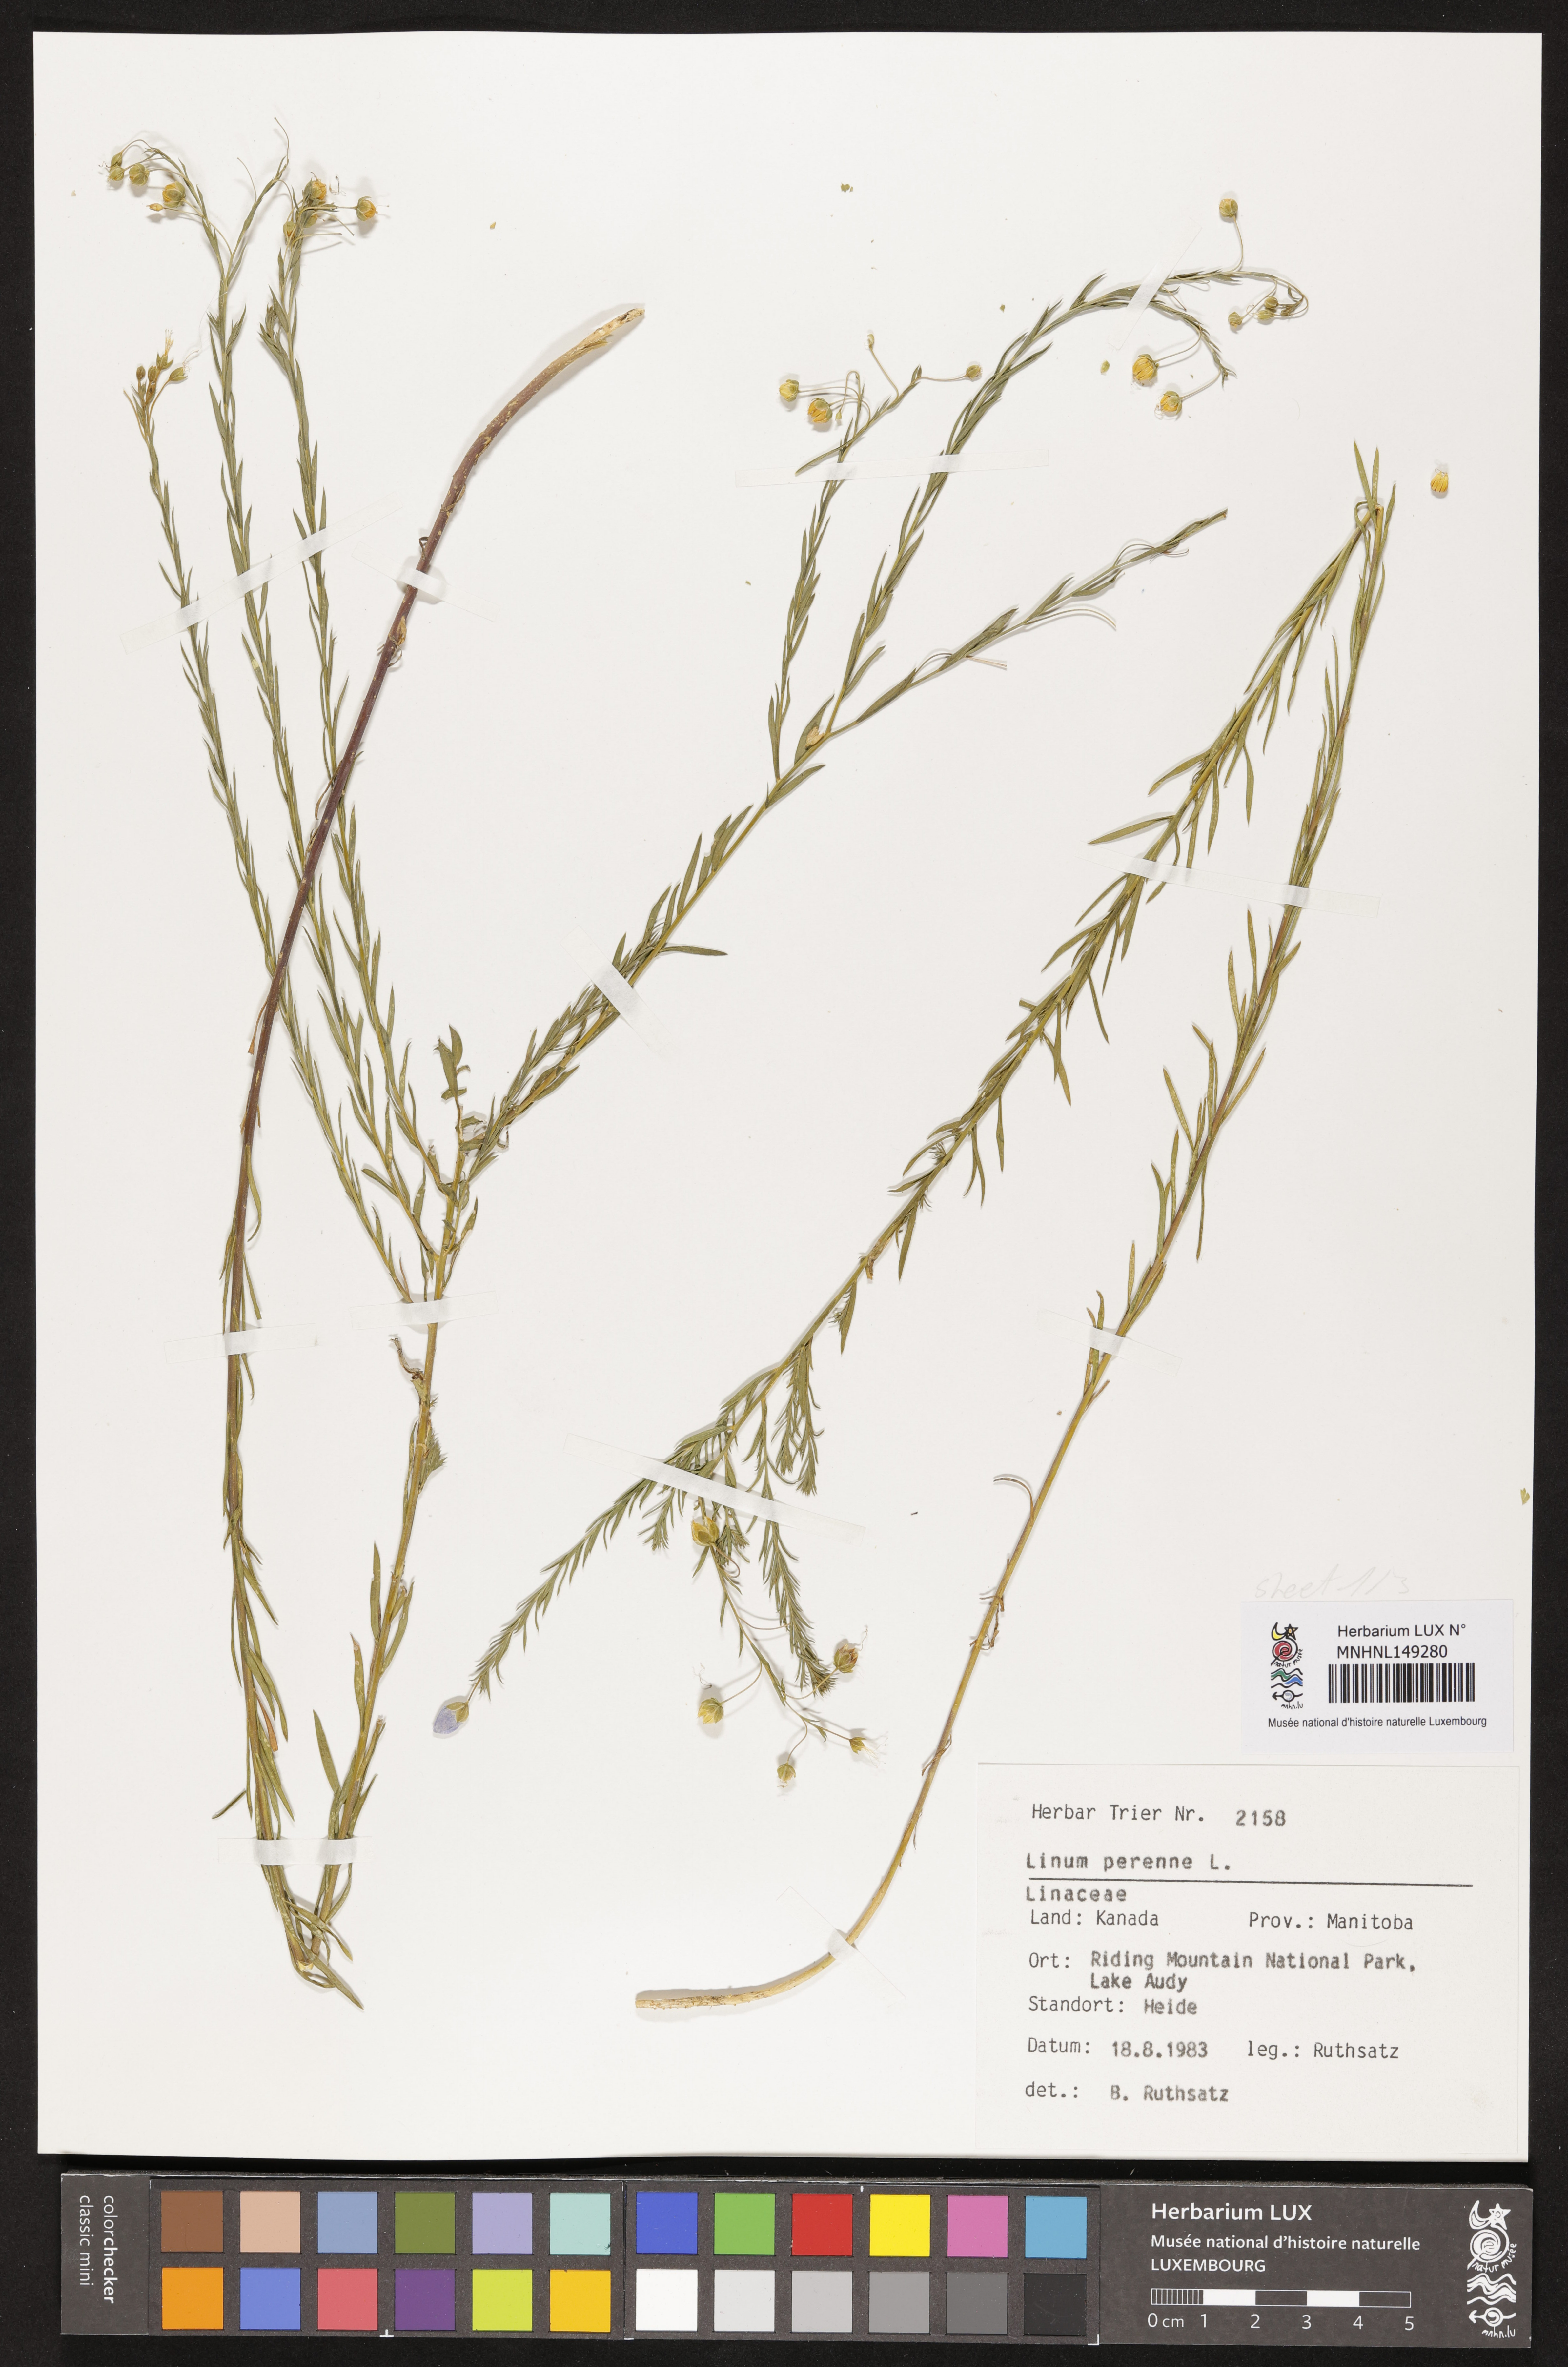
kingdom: Plantae
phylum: Tracheophyta
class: Magnoliopsida
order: Malpighiales
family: Linaceae
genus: Linum
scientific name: Linum perenne
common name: Blue flax
